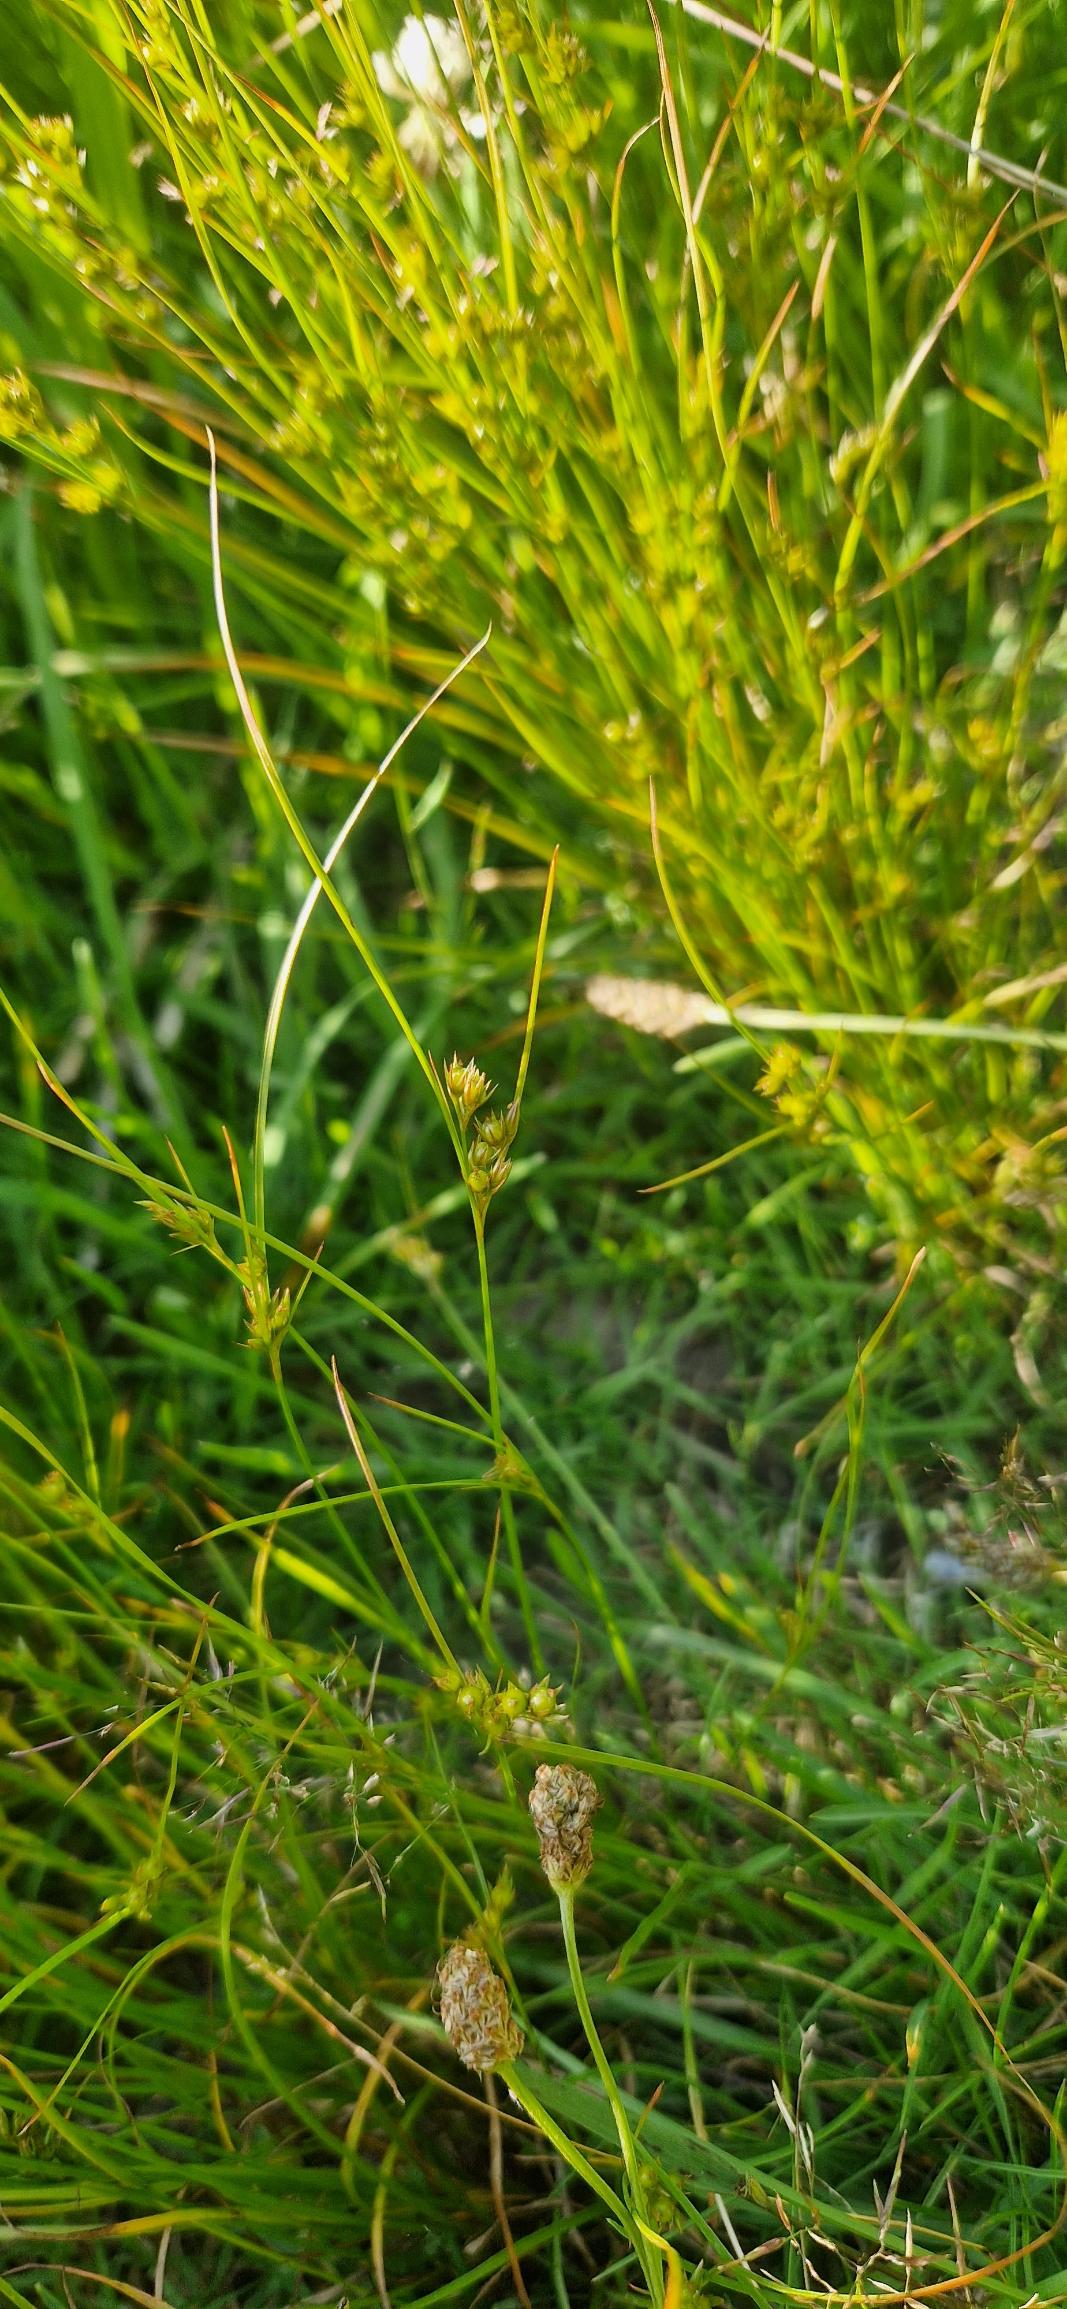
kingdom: Plantae
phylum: Tracheophyta
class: Liliopsida
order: Poales
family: Juncaceae
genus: Juncus
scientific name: Juncus tenuis
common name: Tue-siv
